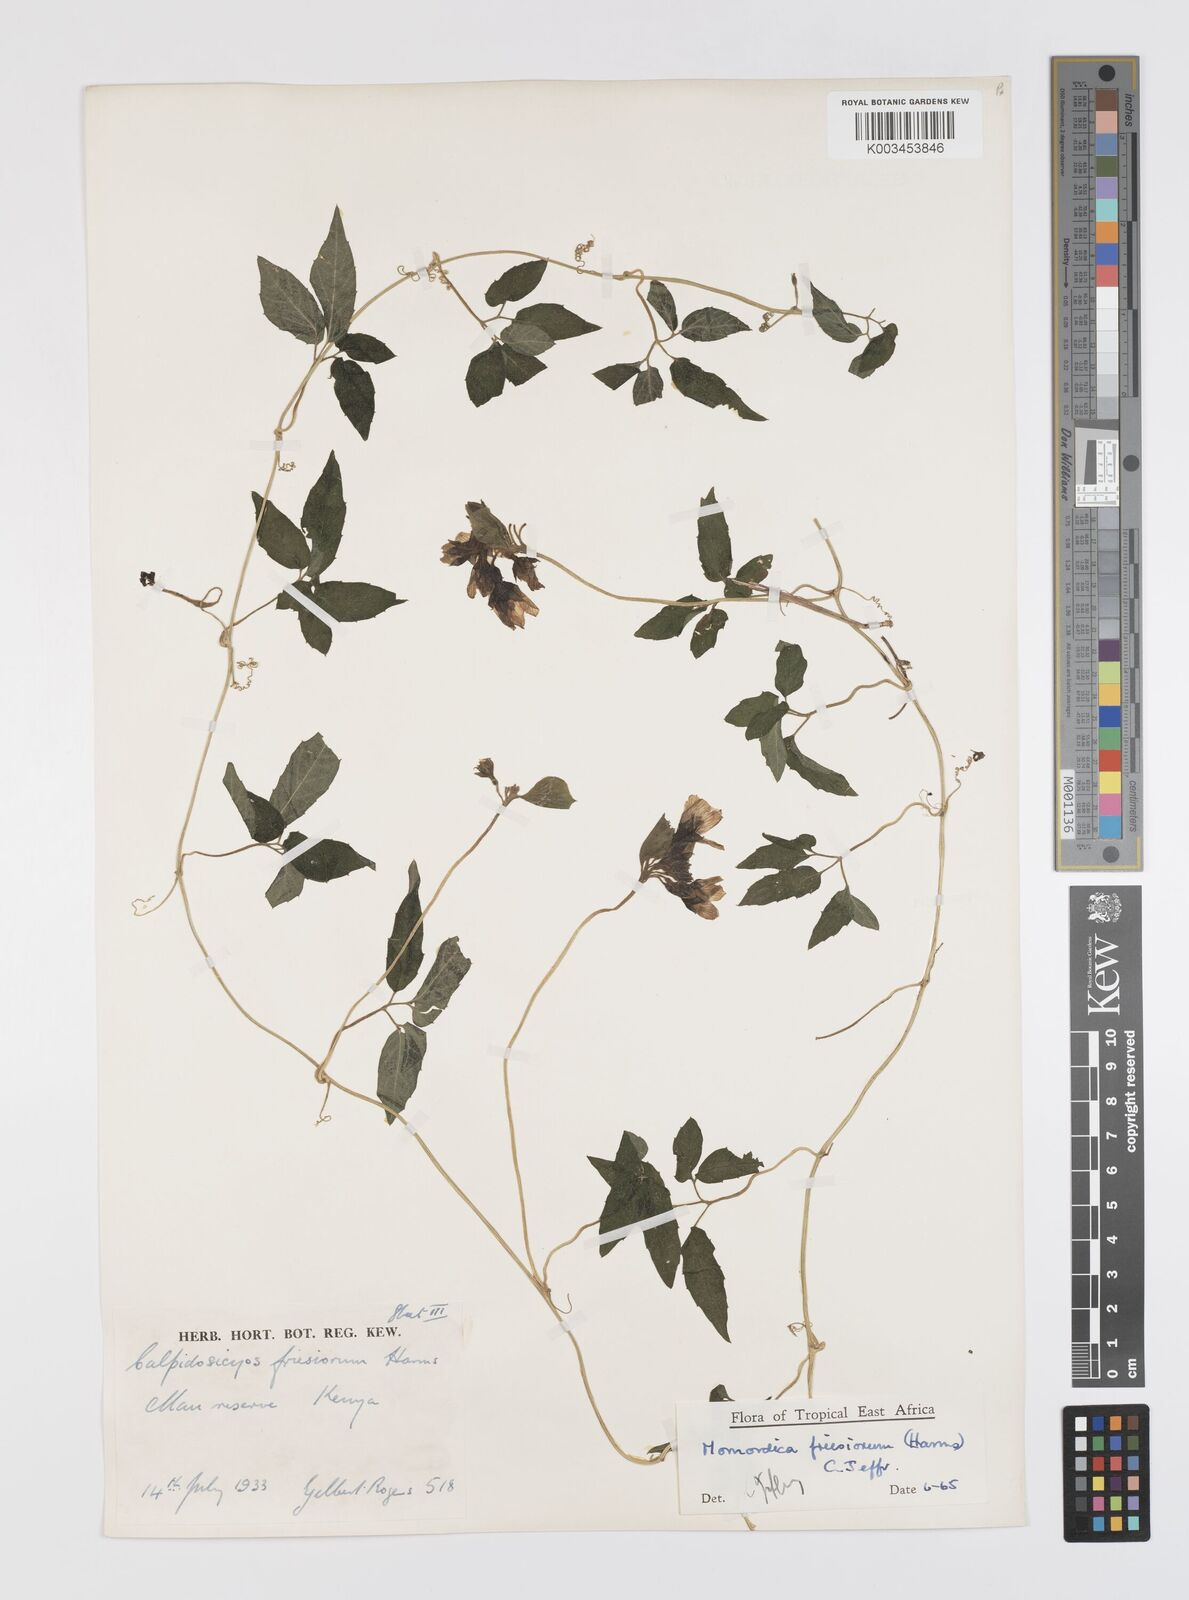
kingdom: Plantae
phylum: Tracheophyta
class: Magnoliopsida
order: Cucurbitales
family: Cucurbitaceae
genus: Momordica
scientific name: Momordica friesiorum
